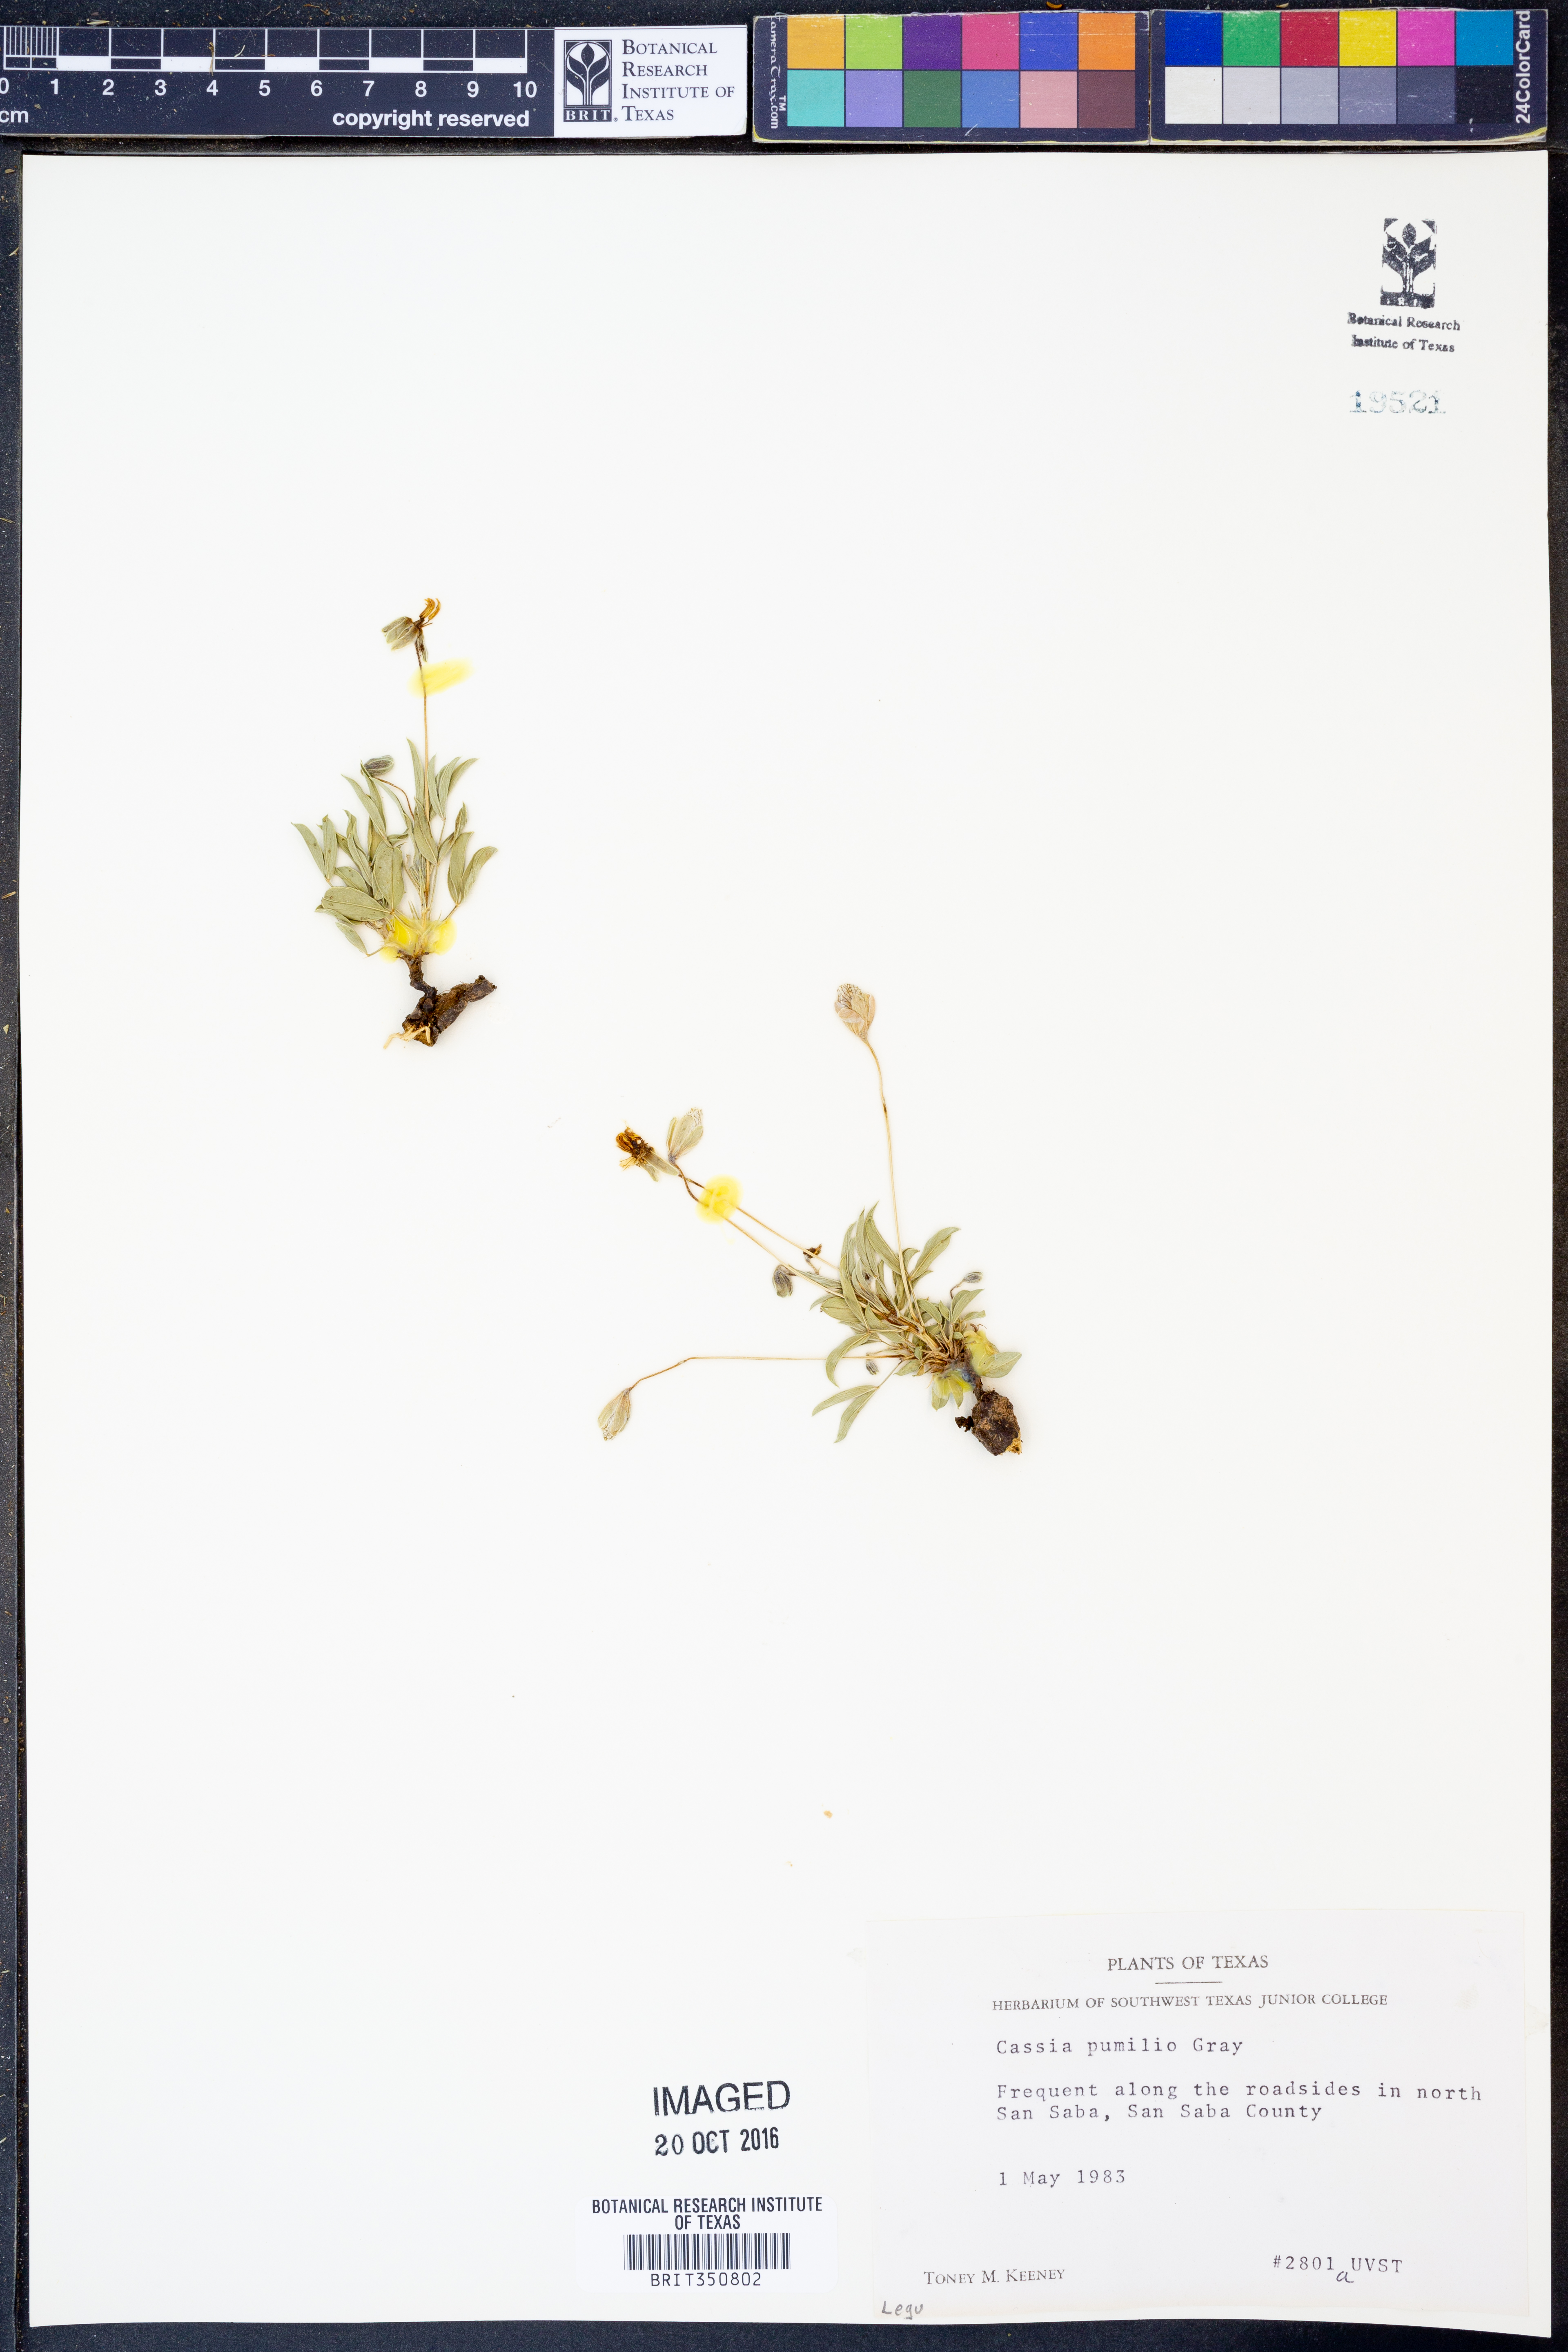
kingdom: Plantae
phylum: Tracheophyta
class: Magnoliopsida
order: Fabales
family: Fabaceae
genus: Senna
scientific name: Senna pumilio
